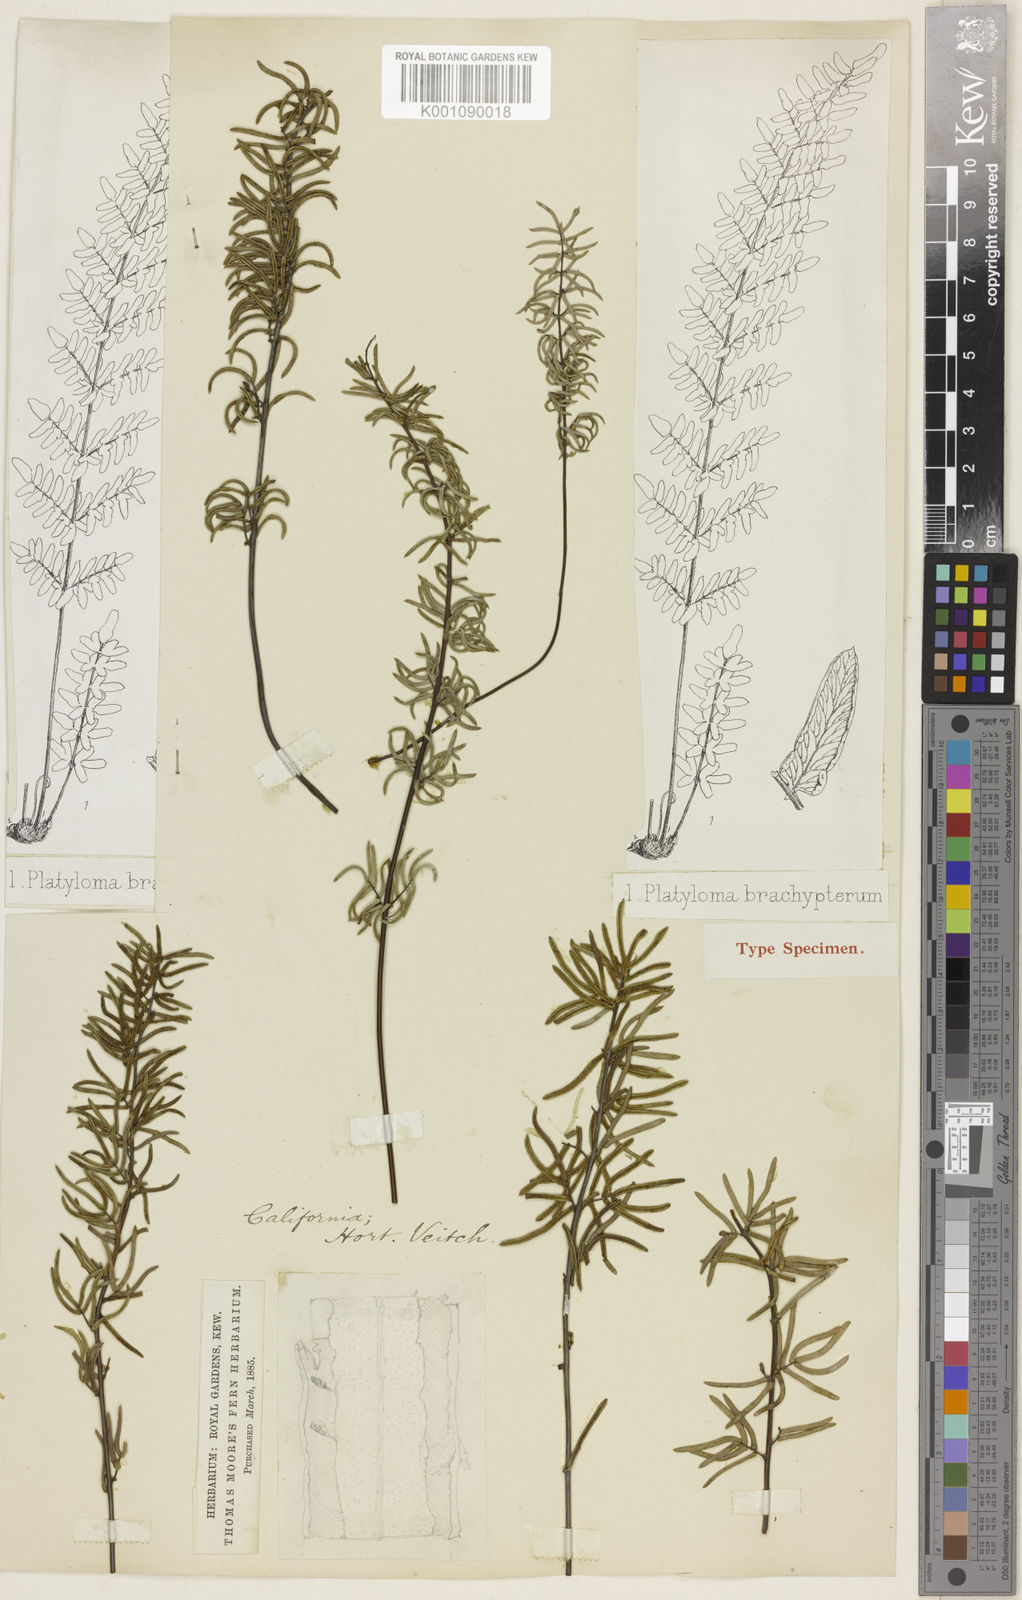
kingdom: Plantae
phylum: Tracheophyta
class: Polypodiopsida
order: Polypodiales
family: Pteridaceae
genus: Pellaea
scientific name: Pellaea brachyptera
